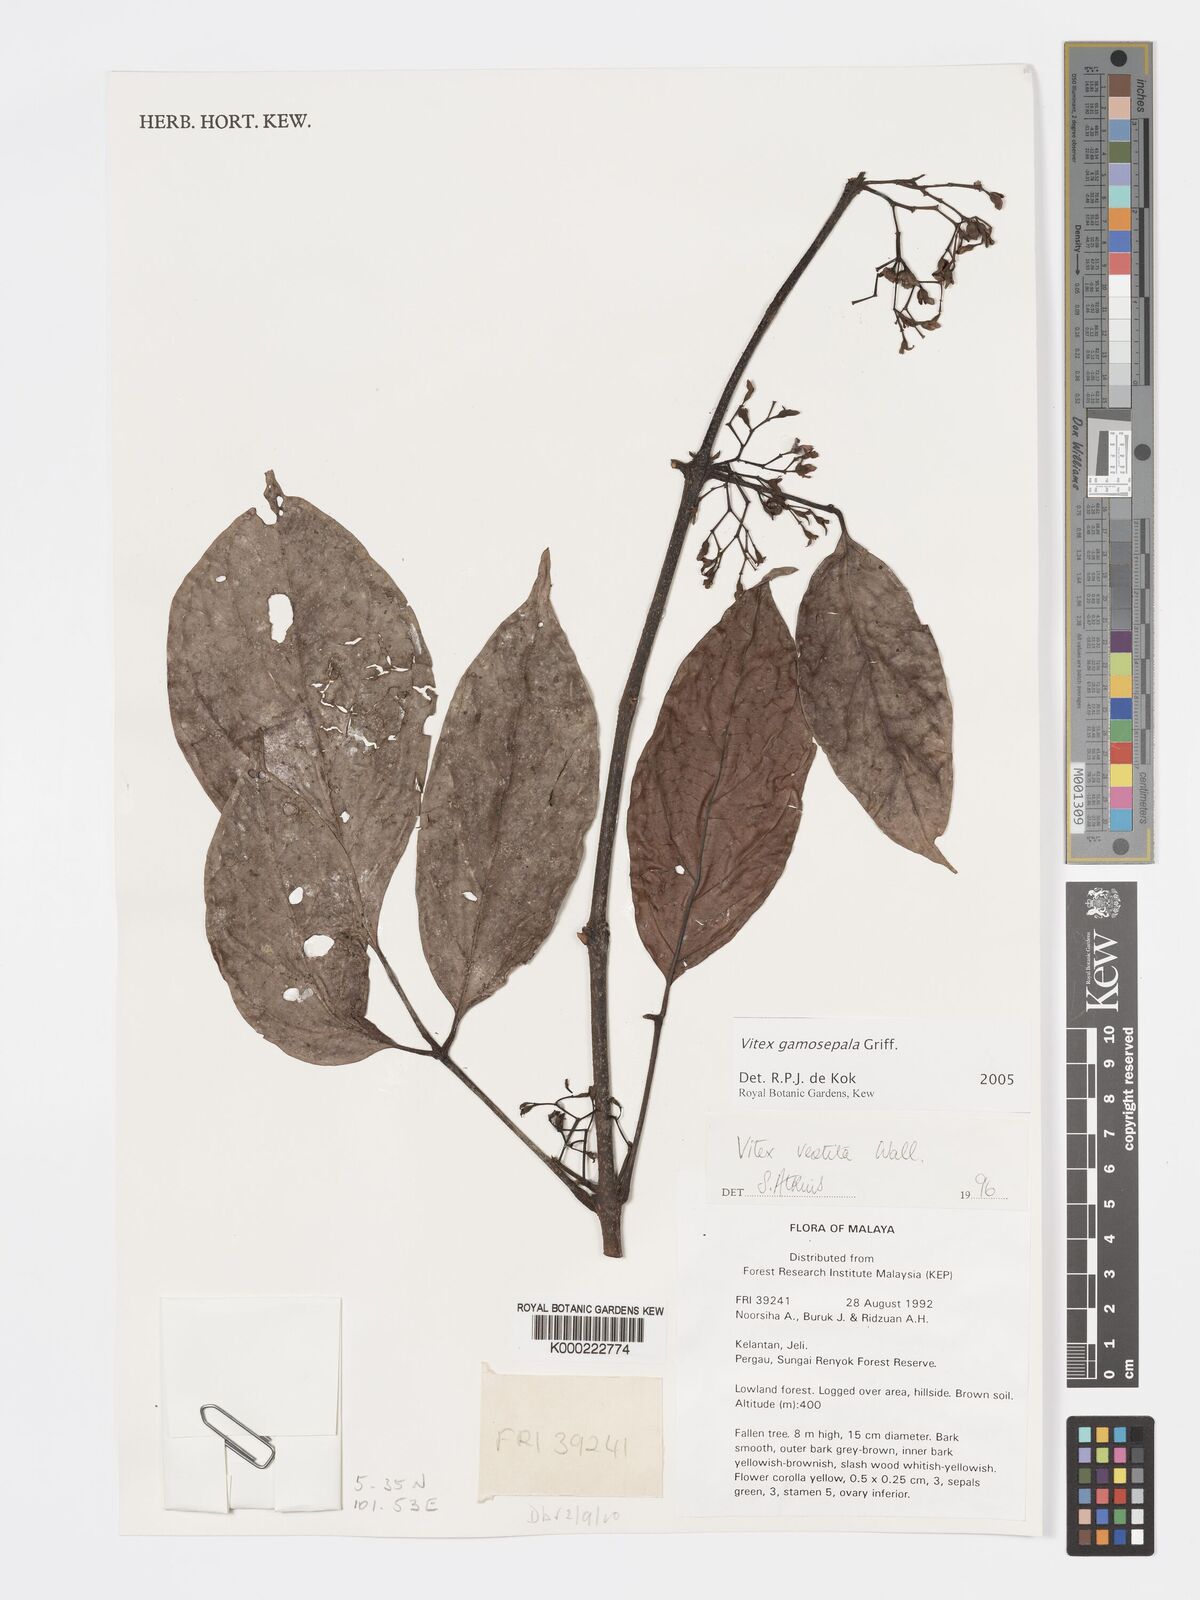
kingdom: Plantae
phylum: Tracheophyta
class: Magnoliopsida
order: Lamiales
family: Lamiaceae
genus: Vitex
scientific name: Vitex gamosepala
